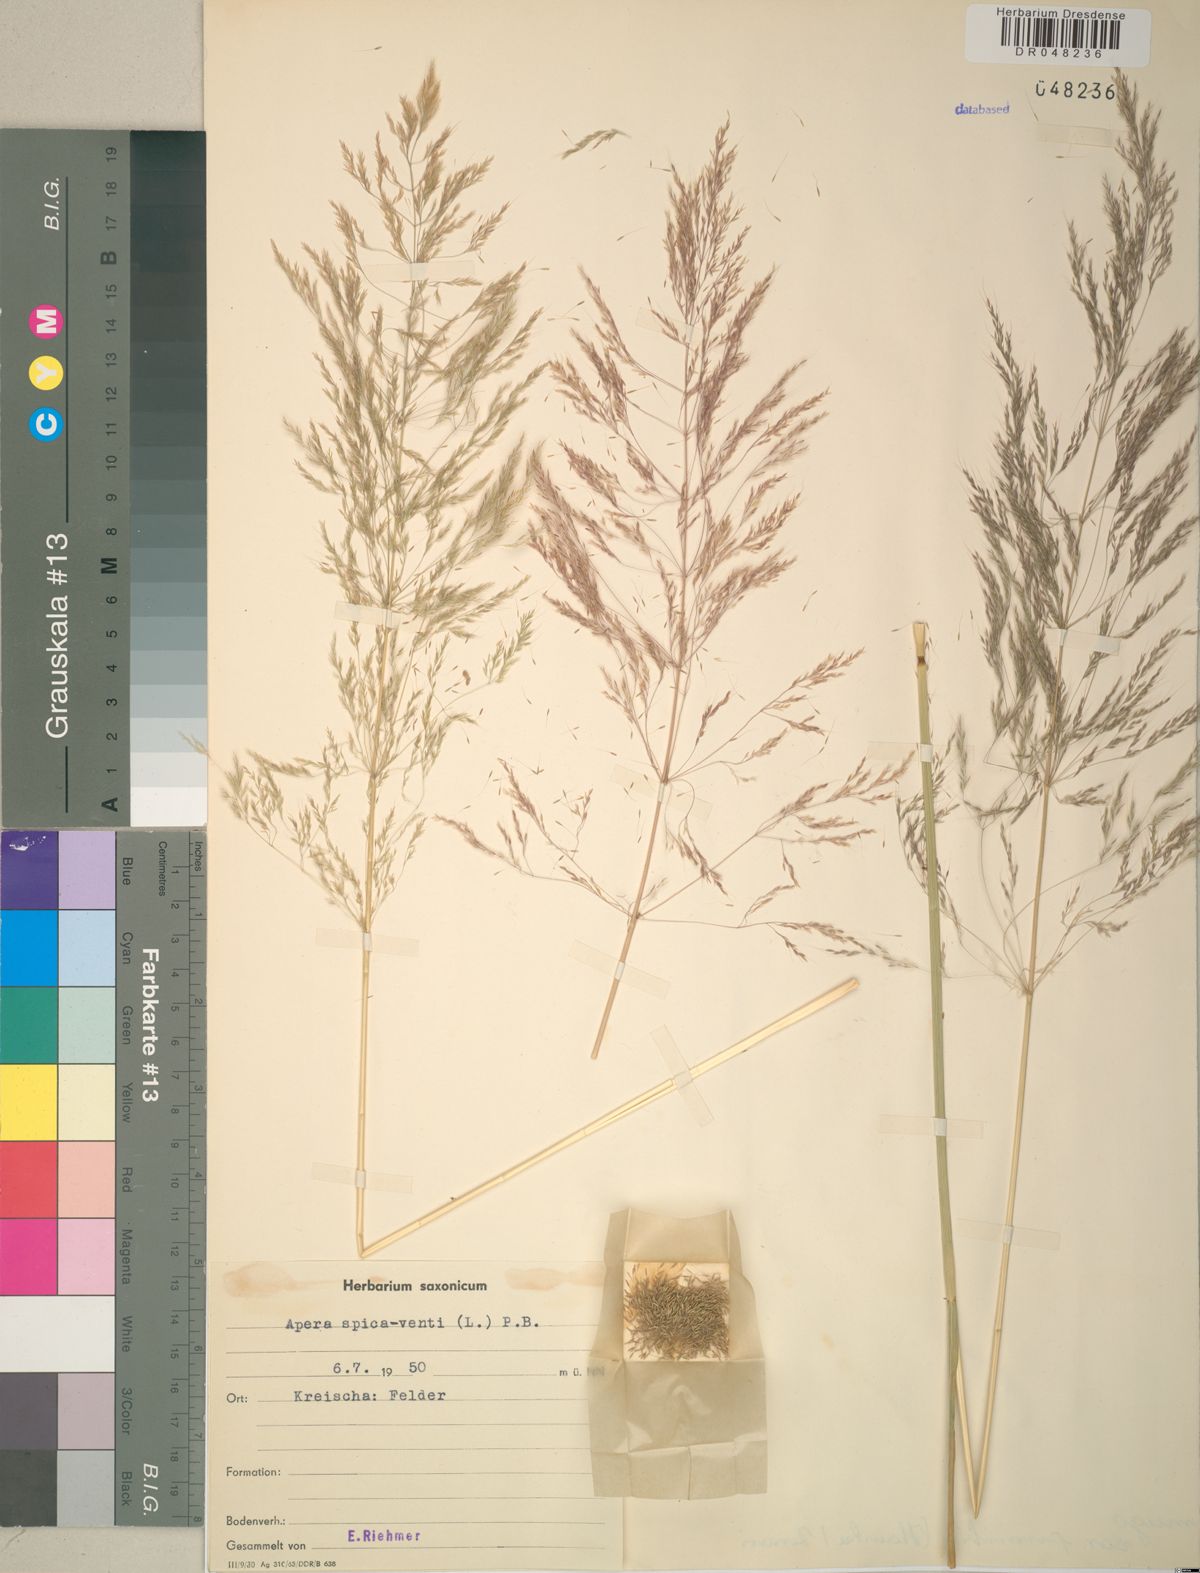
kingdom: Plantae
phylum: Tracheophyta
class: Liliopsida
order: Poales
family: Poaceae
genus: Apera
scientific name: Apera spica-venti
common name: Loose silky-bent
